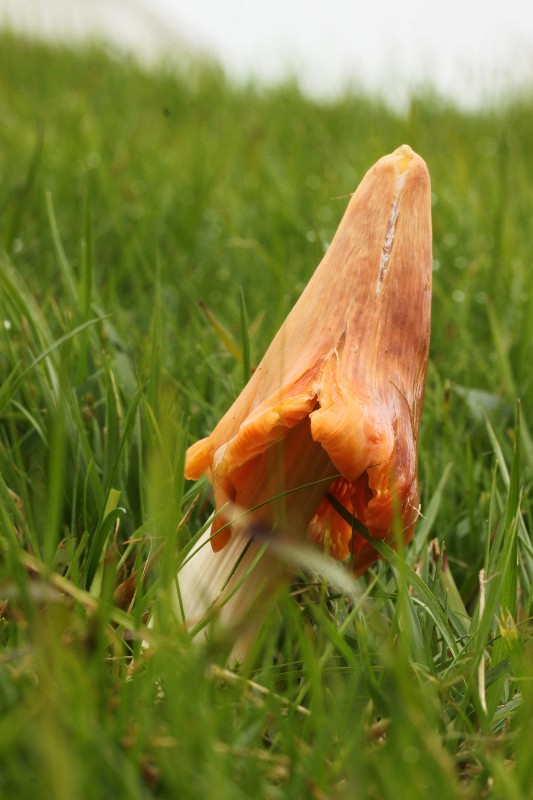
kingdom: Fungi
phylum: Basidiomycota
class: Agaricomycetes
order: Agaricales
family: Hygrophoraceae
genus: Porpolomopsis
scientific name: Porpolomopsis calyptriformis
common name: rosenrød vokshat
